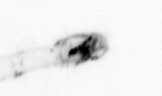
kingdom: Chromista
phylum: Ochrophyta
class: Bacillariophyceae
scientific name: Bacillariophyceae
